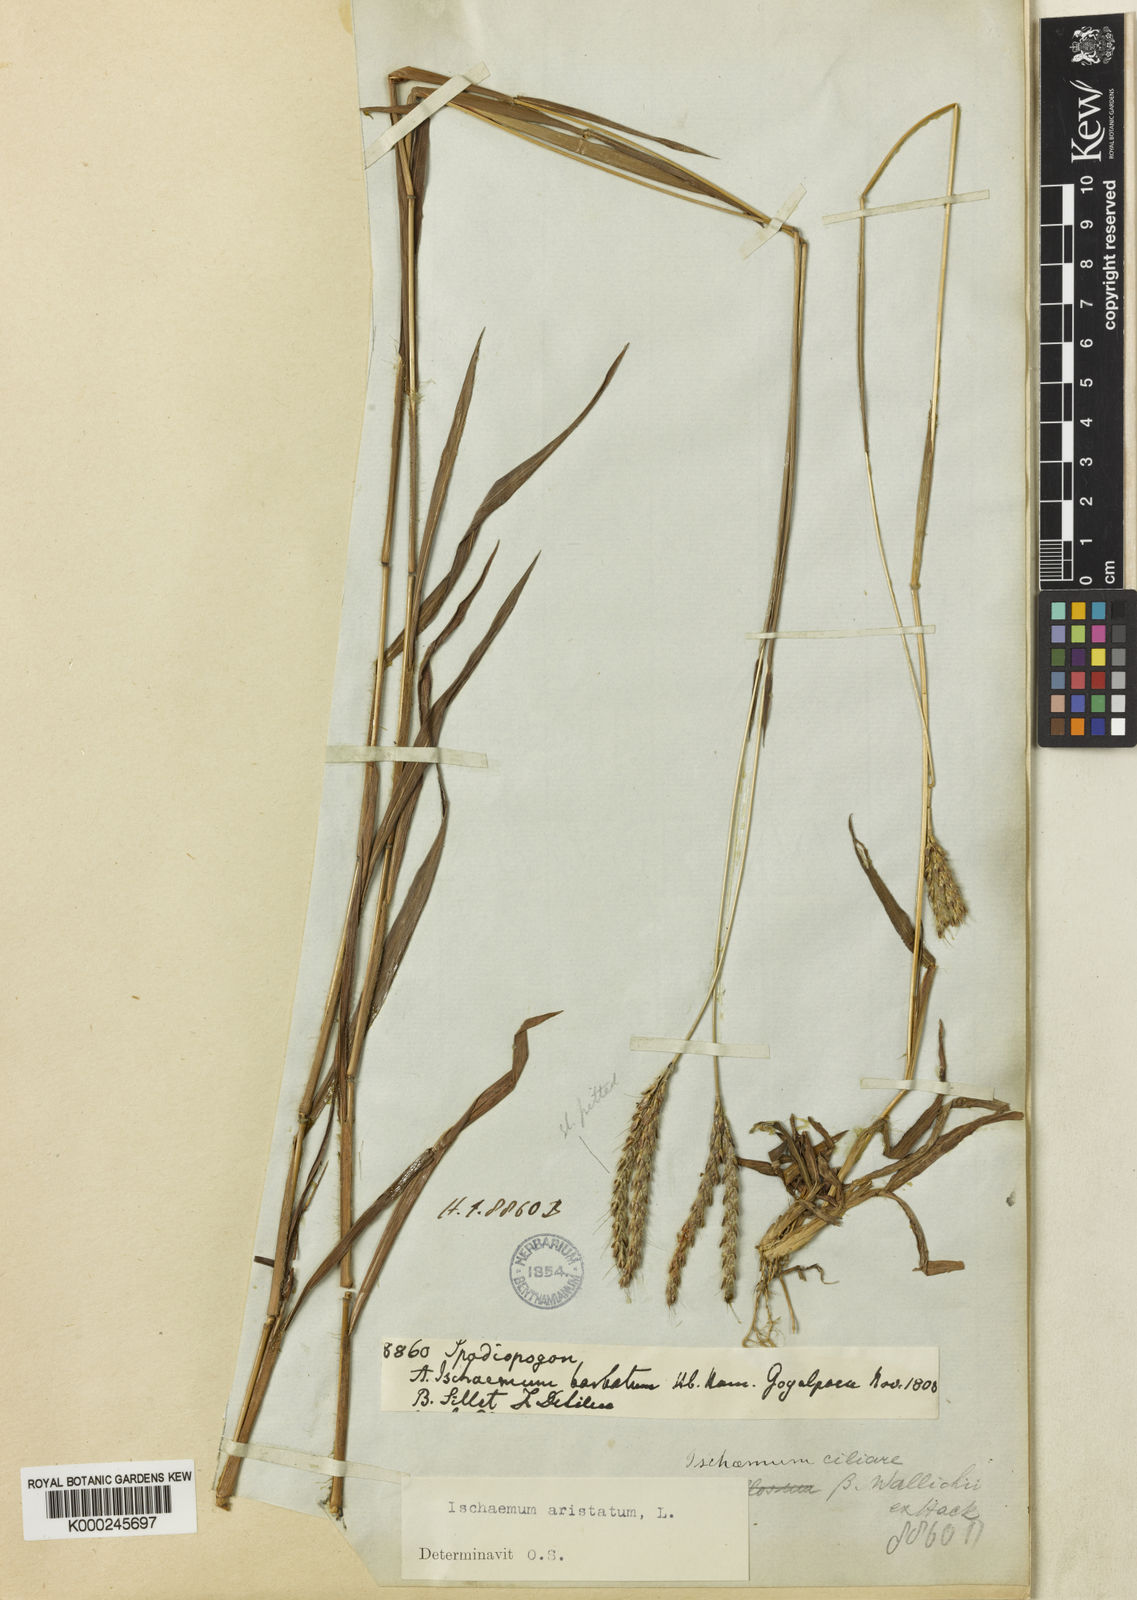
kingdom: Plantae
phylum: Tracheophyta
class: Liliopsida
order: Poales
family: Poaceae
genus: Polytrias
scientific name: Polytrias indica
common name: Indian murainagrass
